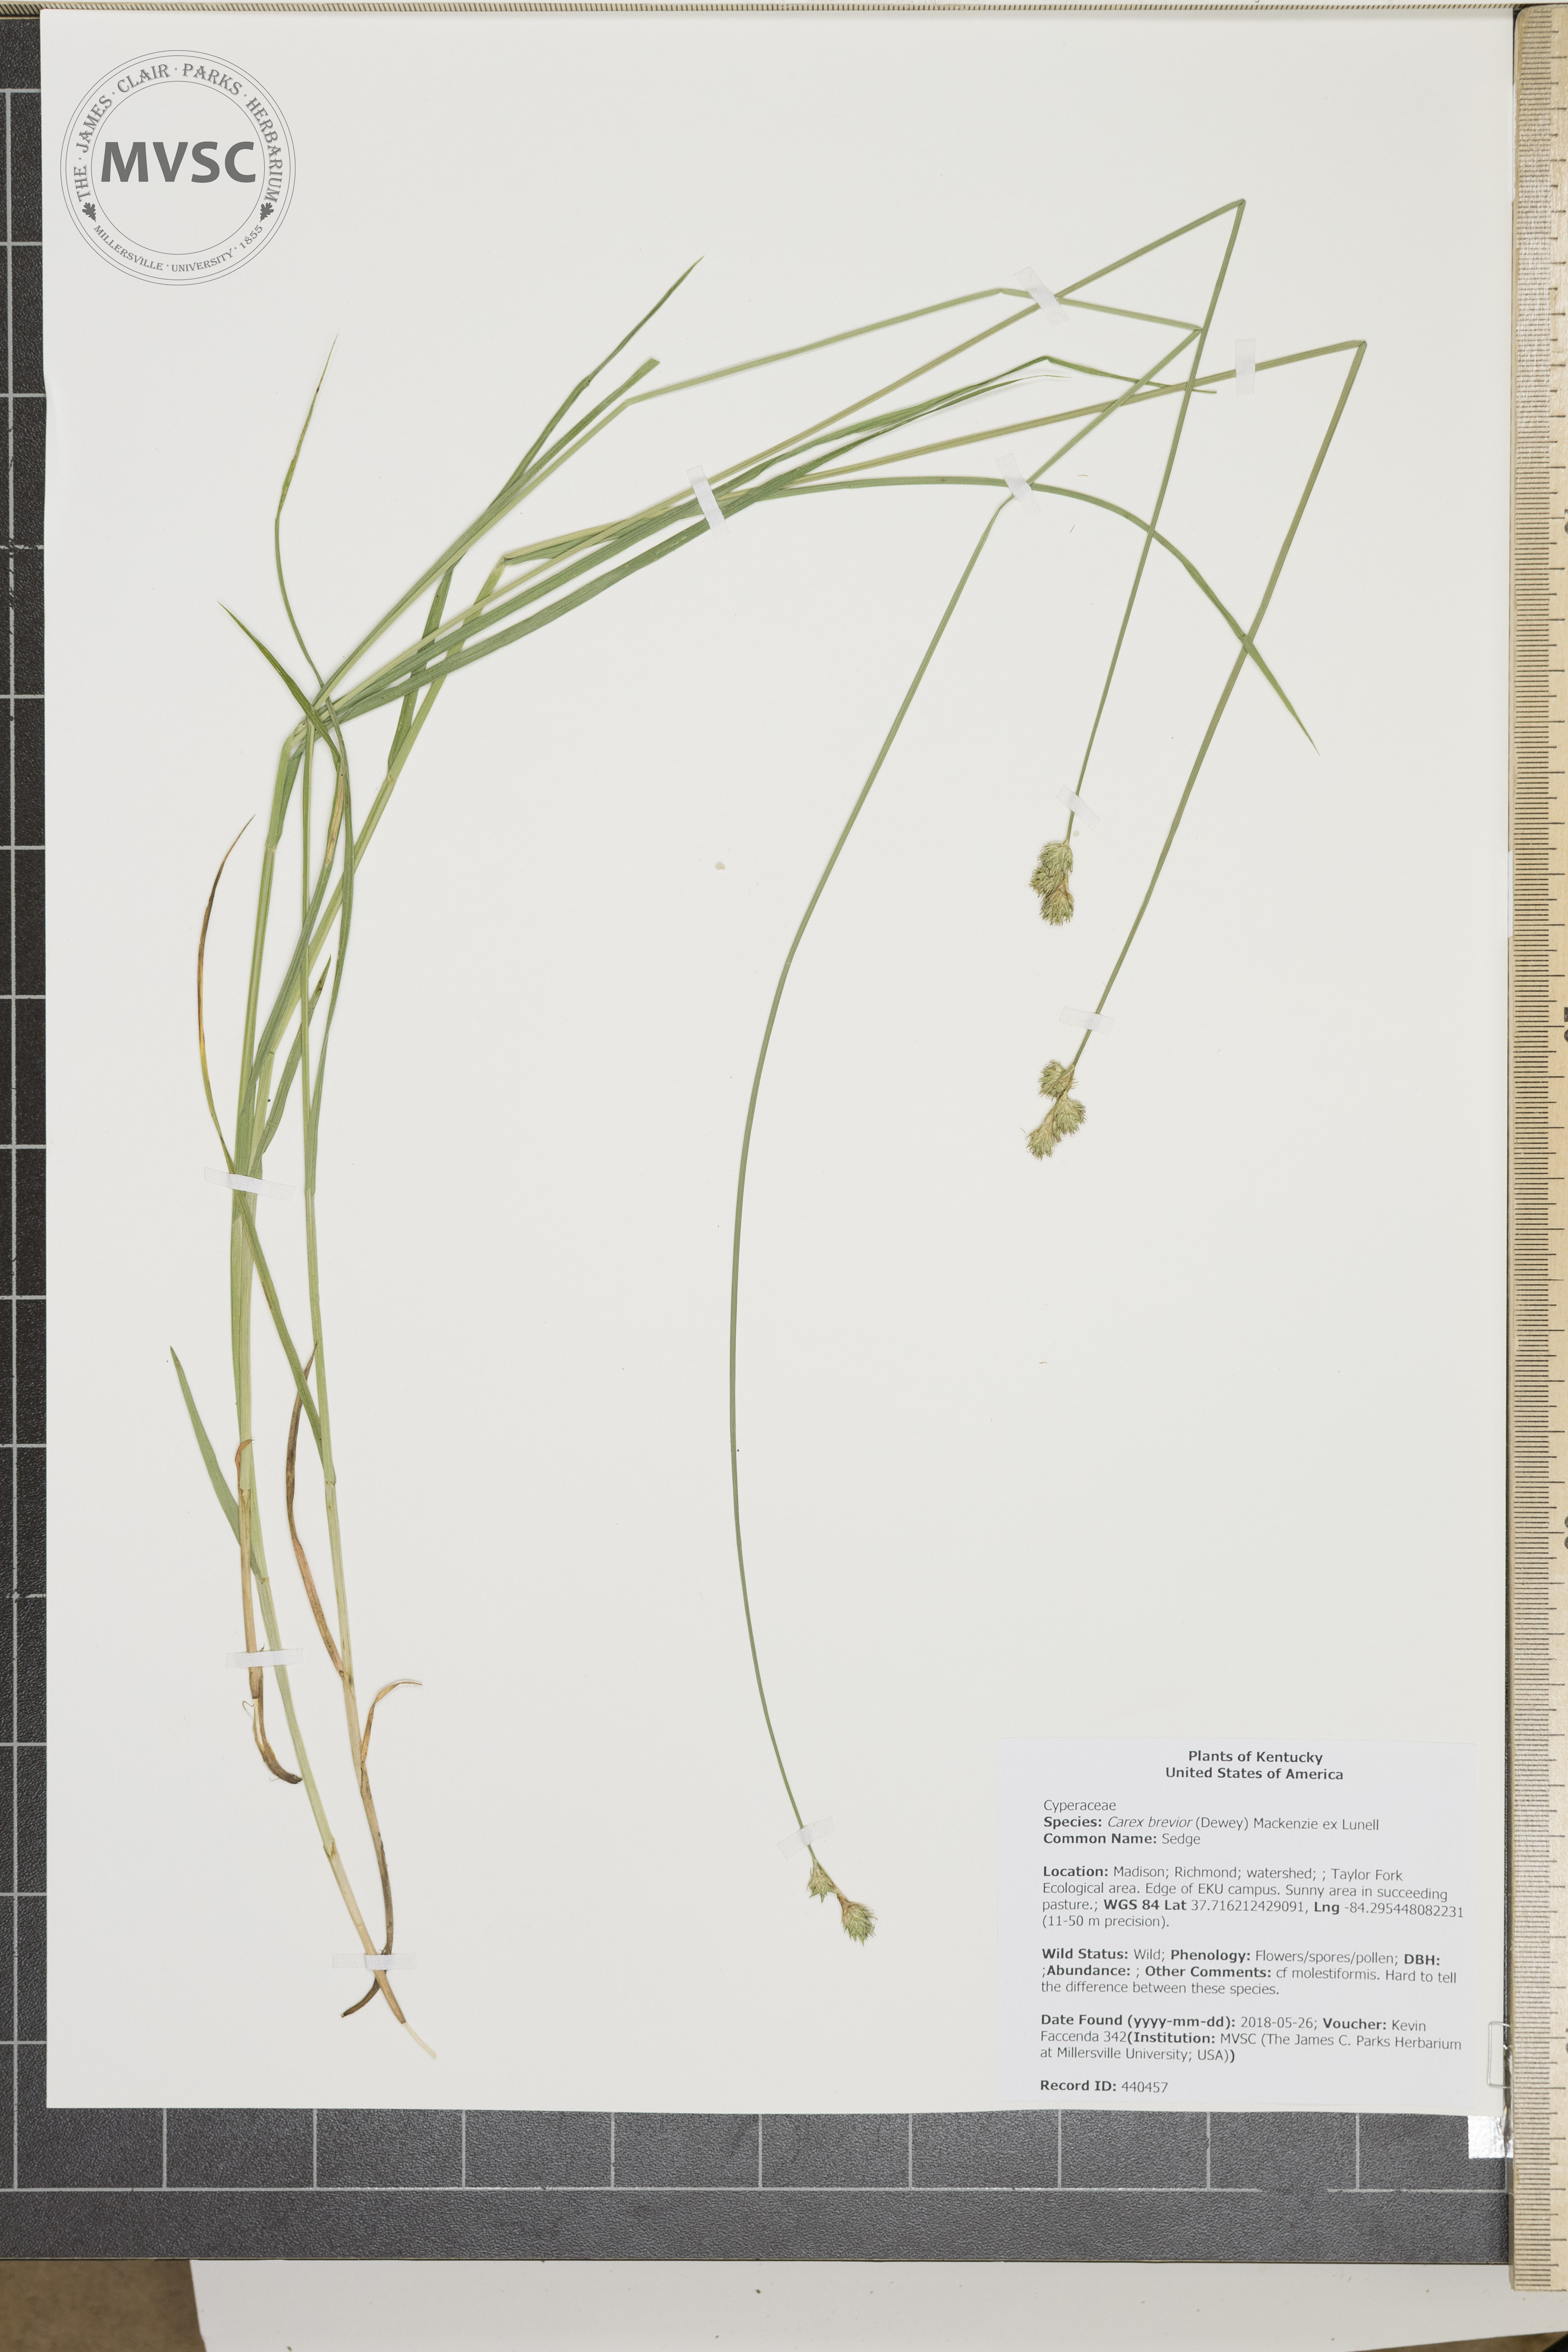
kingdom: Plantae
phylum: Tracheophyta
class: Liliopsida
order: Poales
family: Cyperaceae
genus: Carex
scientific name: Carex brevior
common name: Sedge
